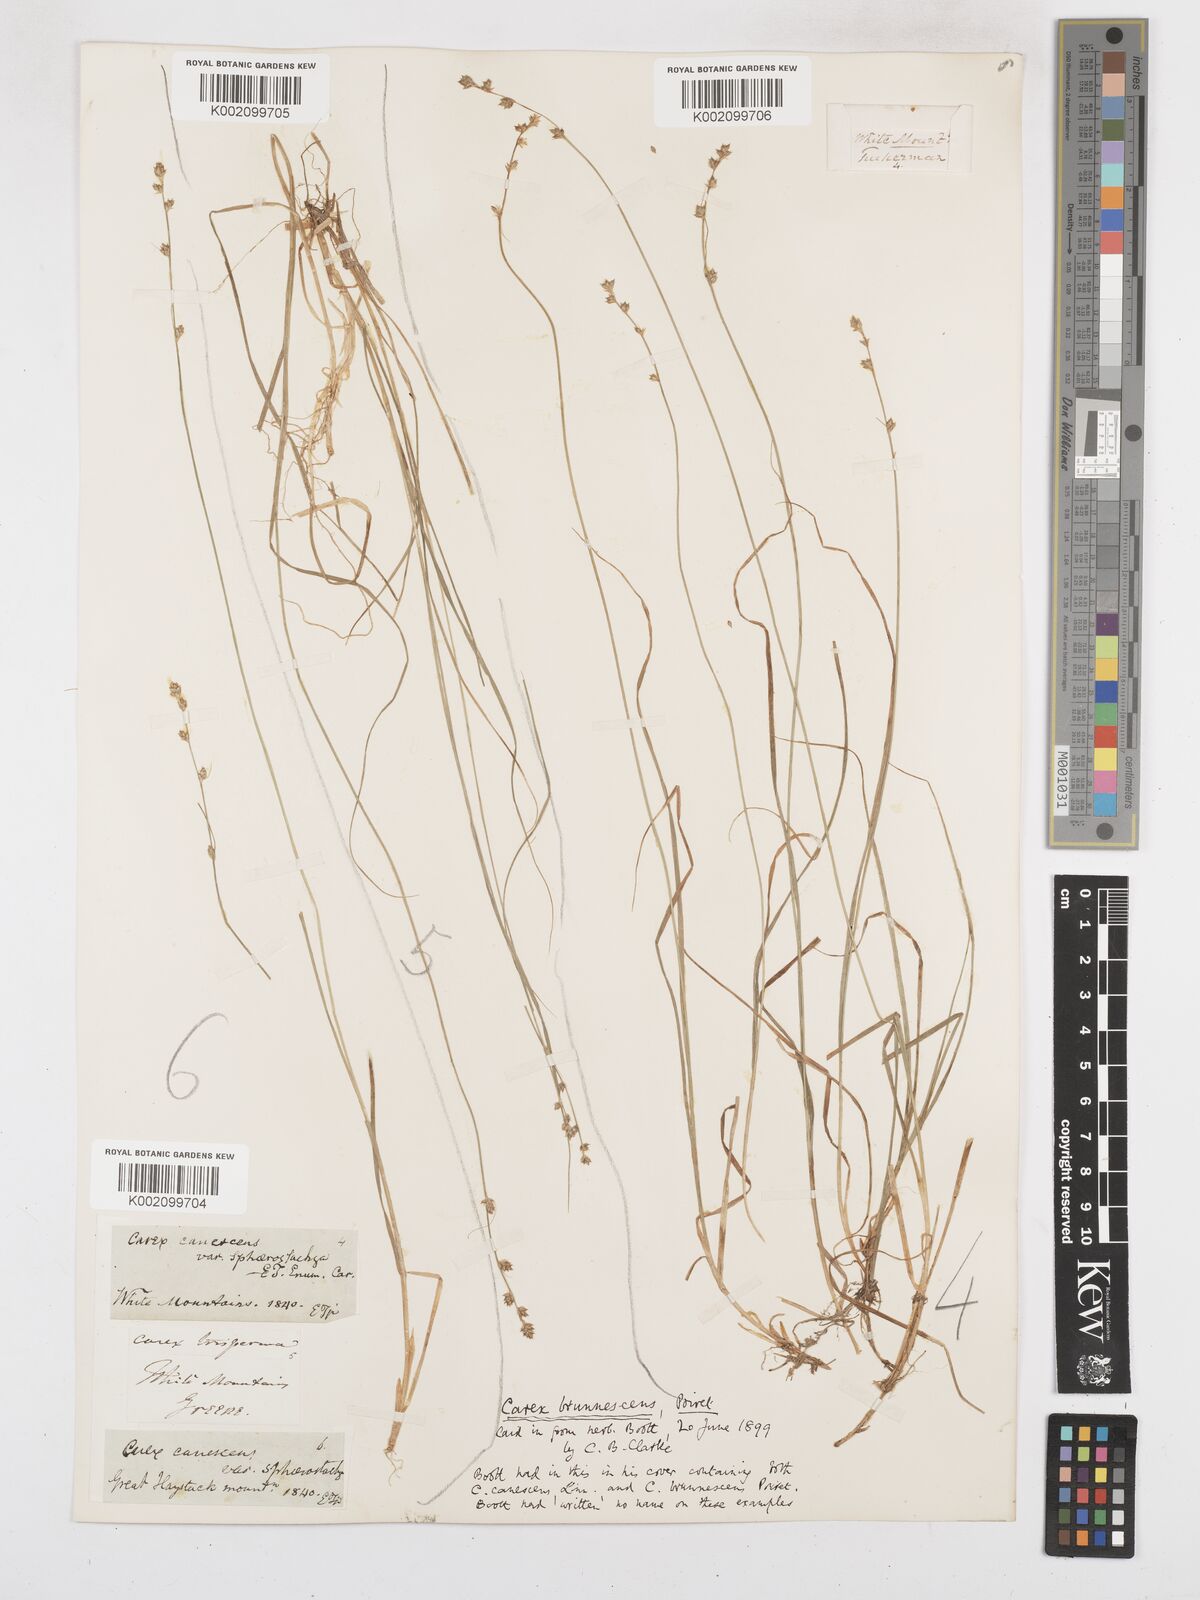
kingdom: Plantae
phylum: Tracheophyta
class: Liliopsida
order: Poales
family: Cyperaceae
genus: Carex
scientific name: Carex brunnescens
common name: Brown sedge
